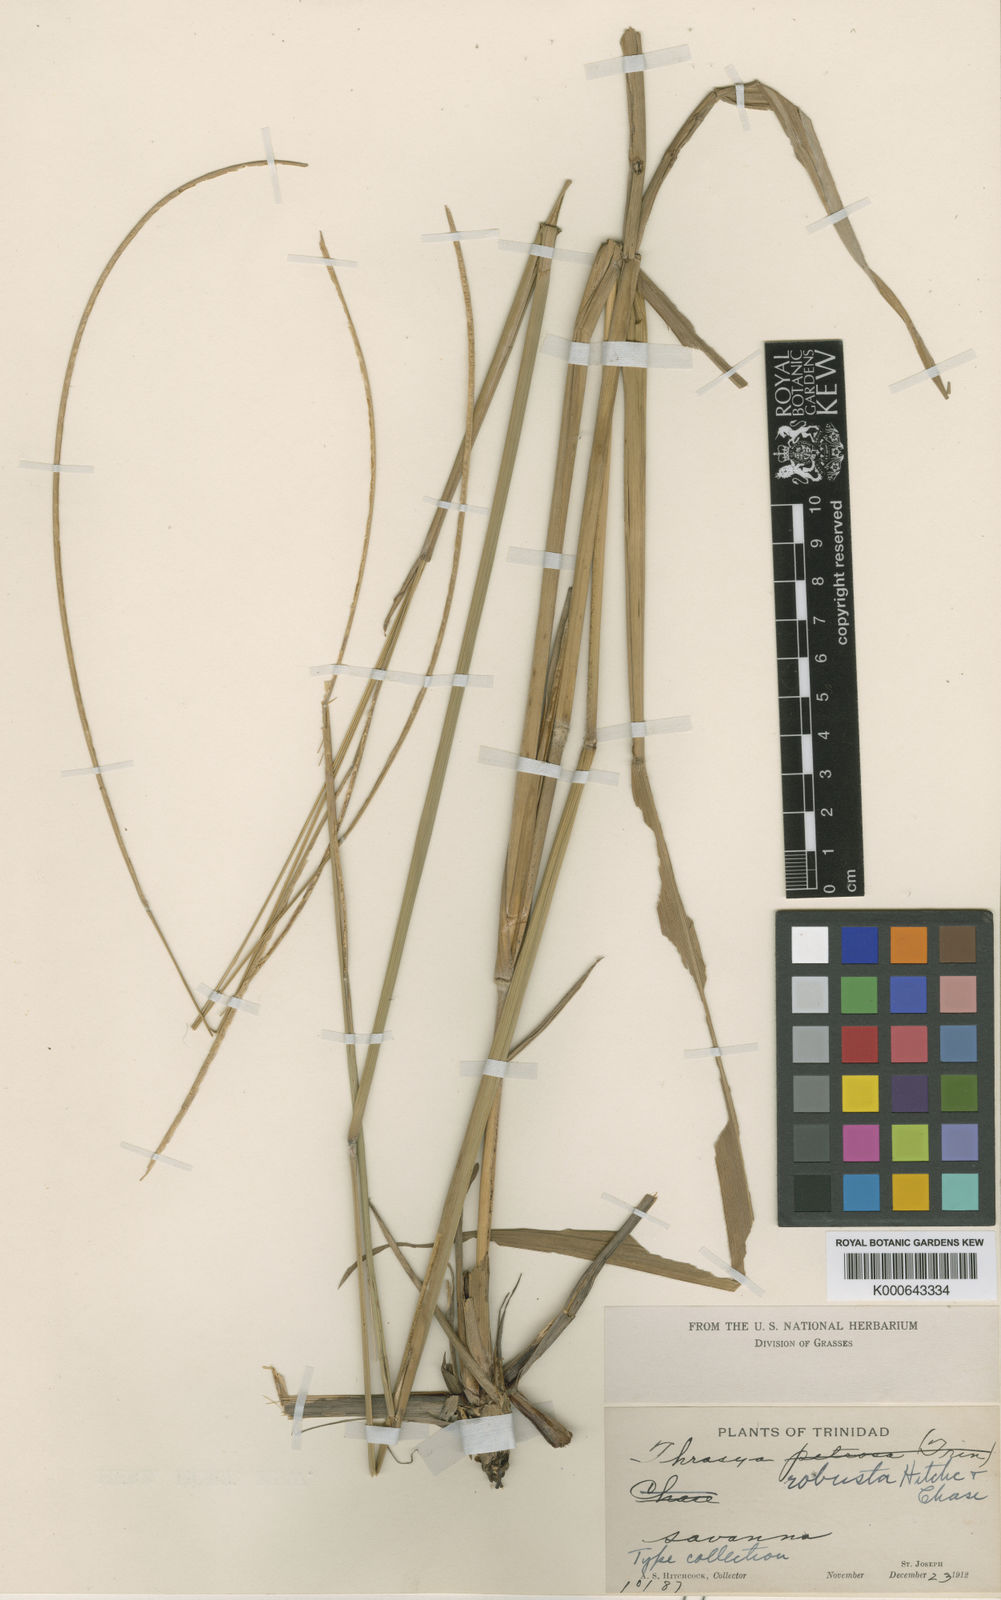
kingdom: Plantae
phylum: Tracheophyta
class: Liliopsida
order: Poales
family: Poaceae
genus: Paspalum
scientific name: Paspalum robustum
